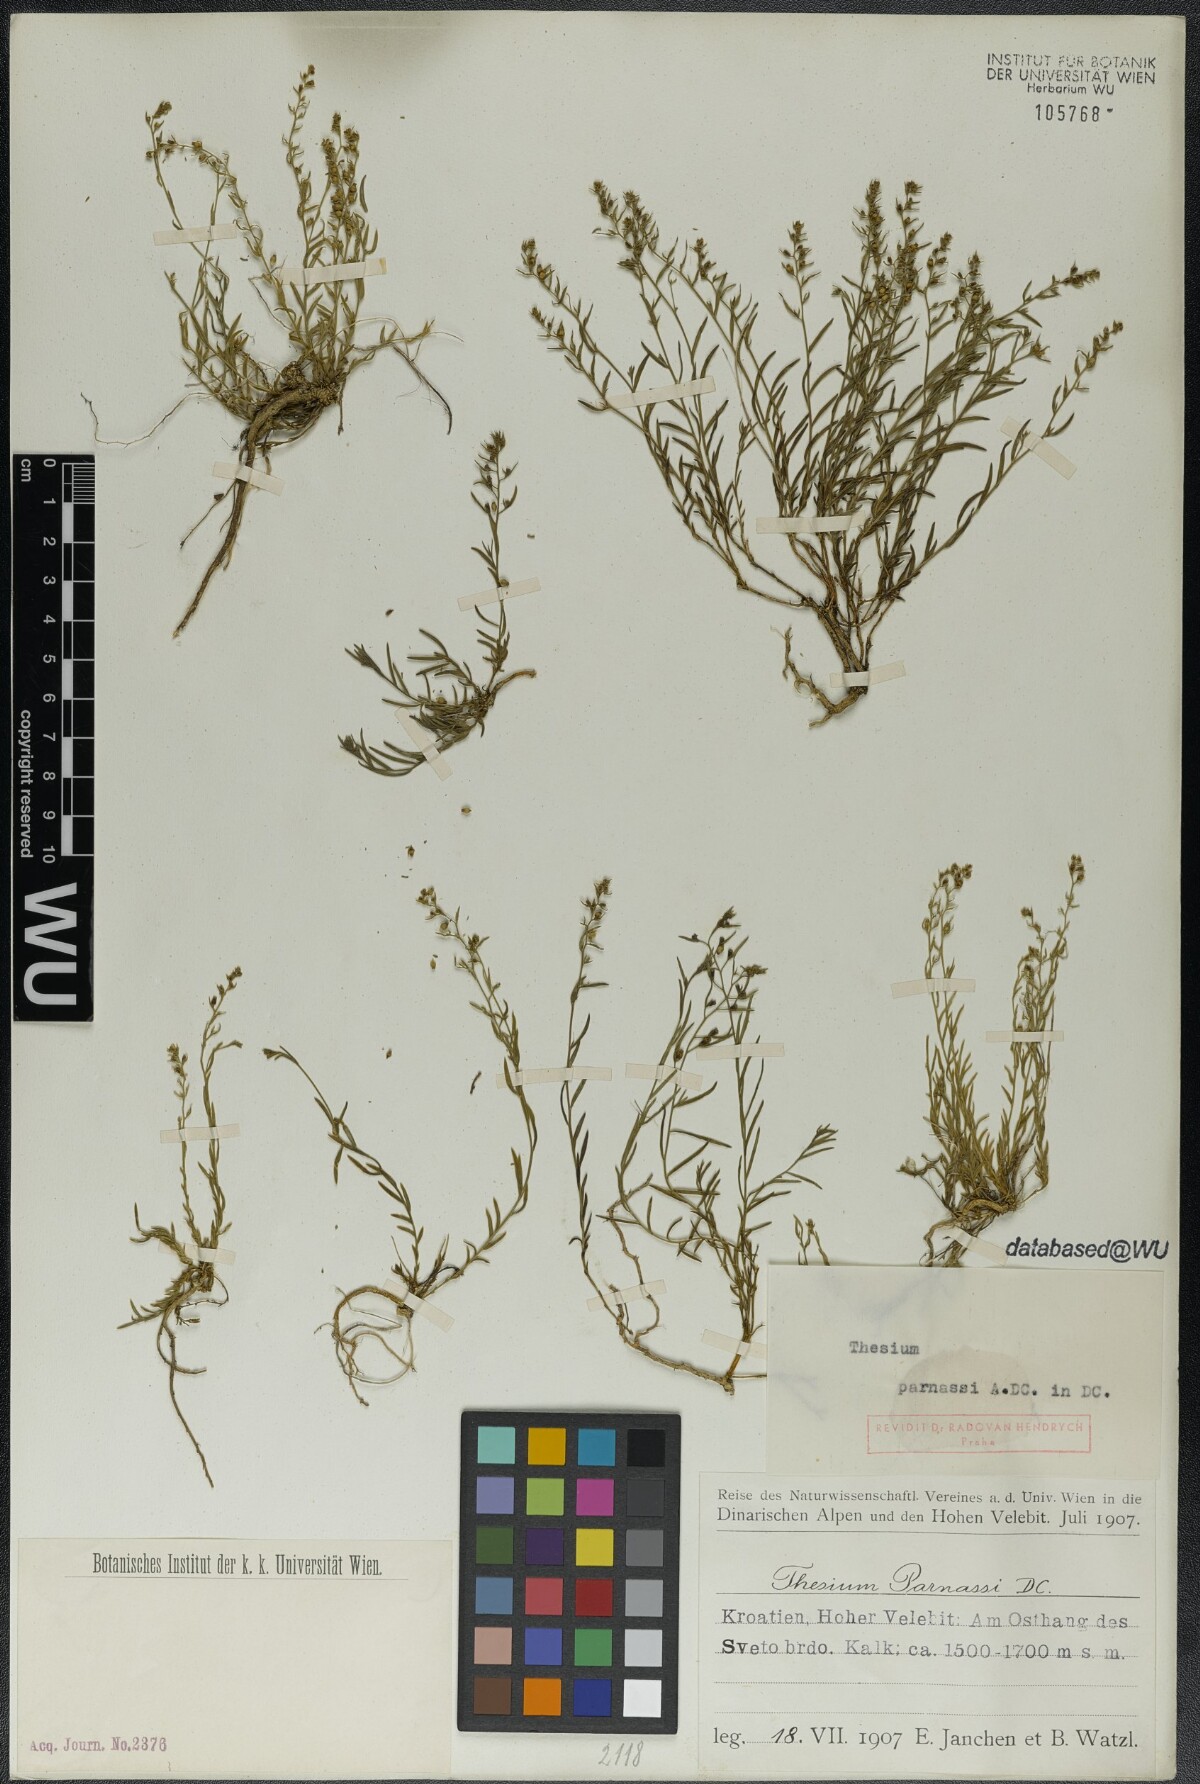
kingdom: Plantae
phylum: Tracheophyta
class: Magnoliopsida
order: Santalales
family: Thesiaceae
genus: Thesium
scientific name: Thesium parnassi
